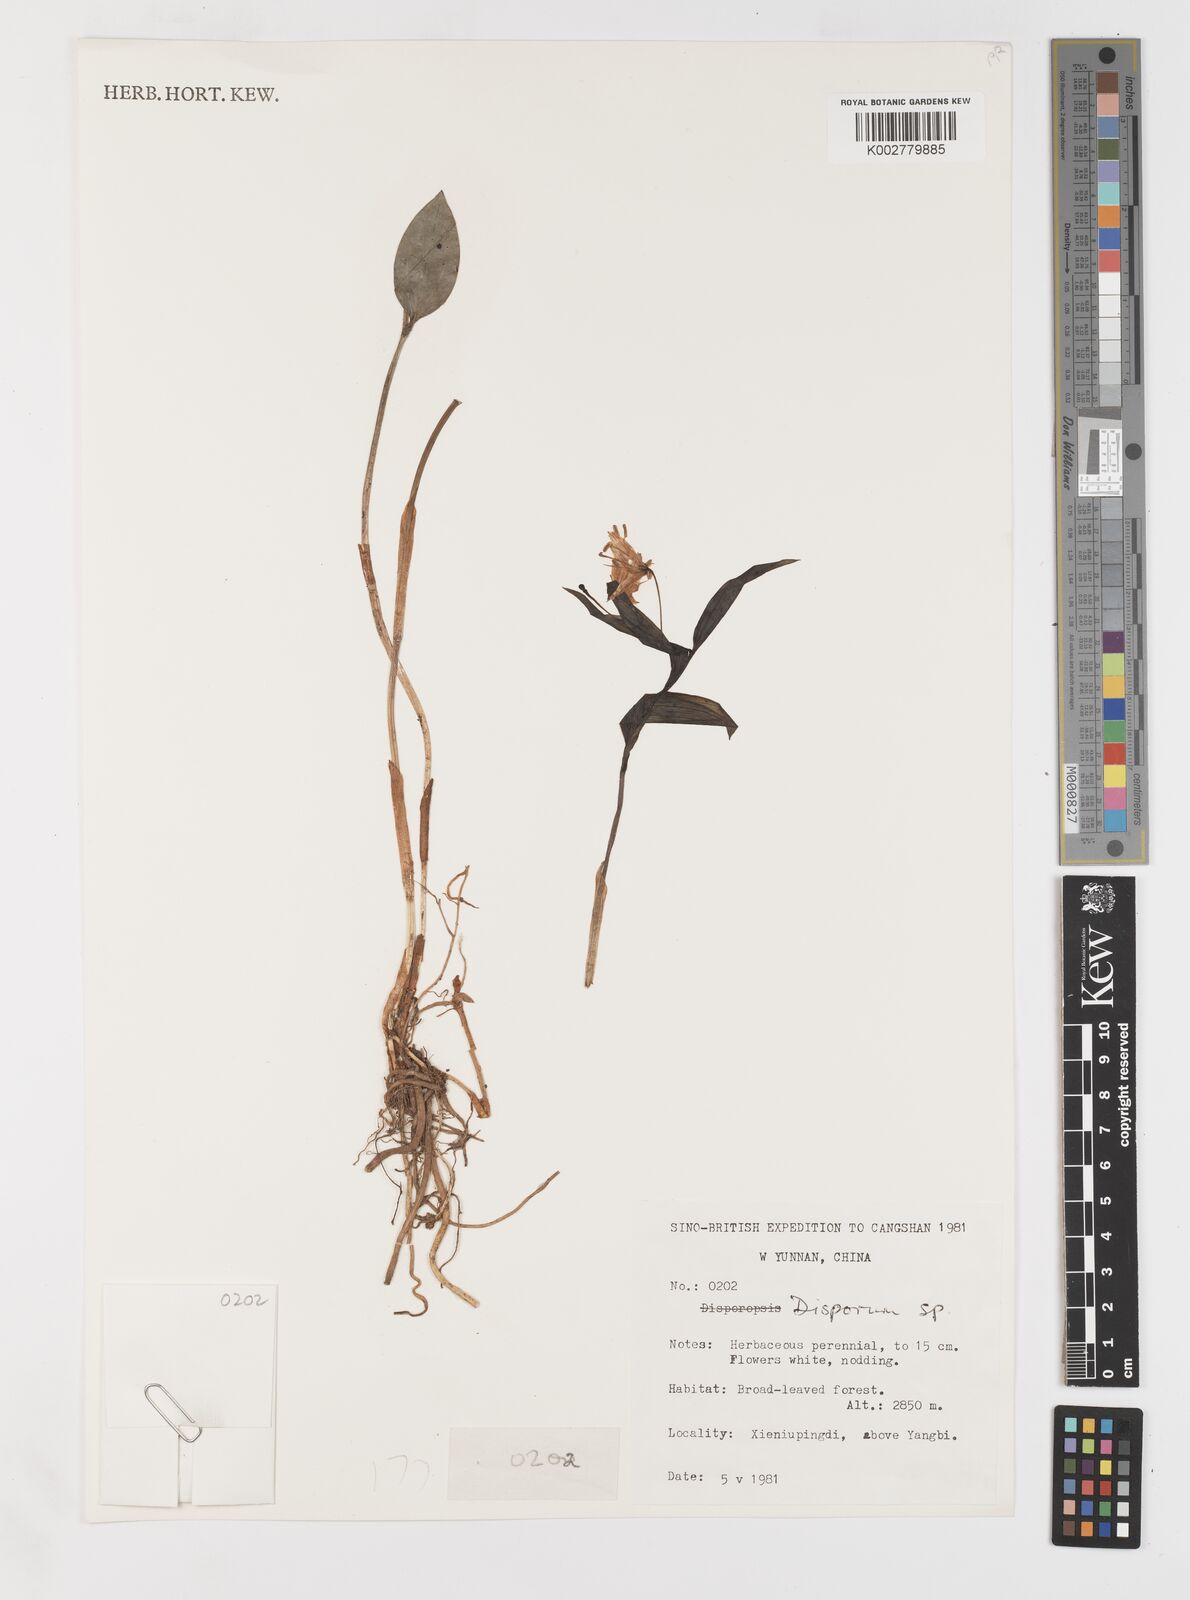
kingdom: Plantae
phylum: Tracheophyta
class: Liliopsida
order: Liliales
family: Colchicaceae
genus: Disporum
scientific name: Disporum
